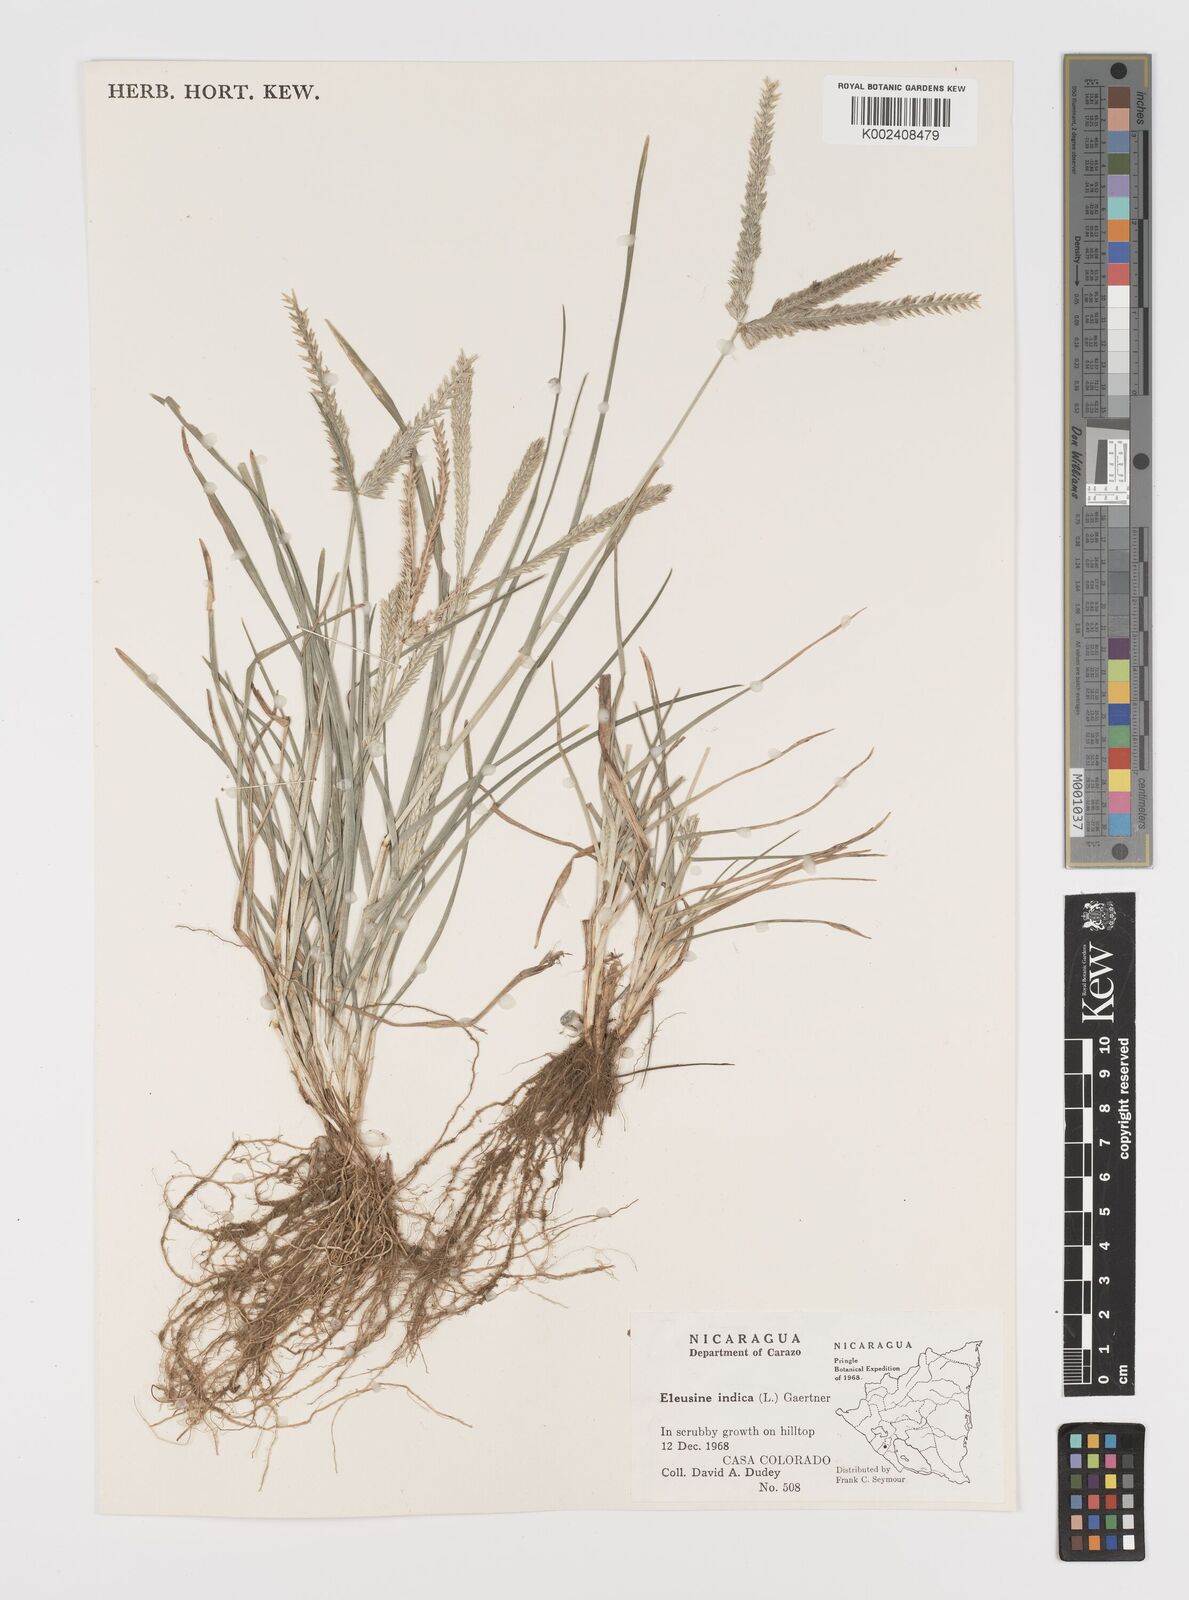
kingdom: Plantae
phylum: Tracheophyta
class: Liliopsida
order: Poales
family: Poaceae
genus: Eleusine
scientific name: Eleusine indica
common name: Yard-grass
